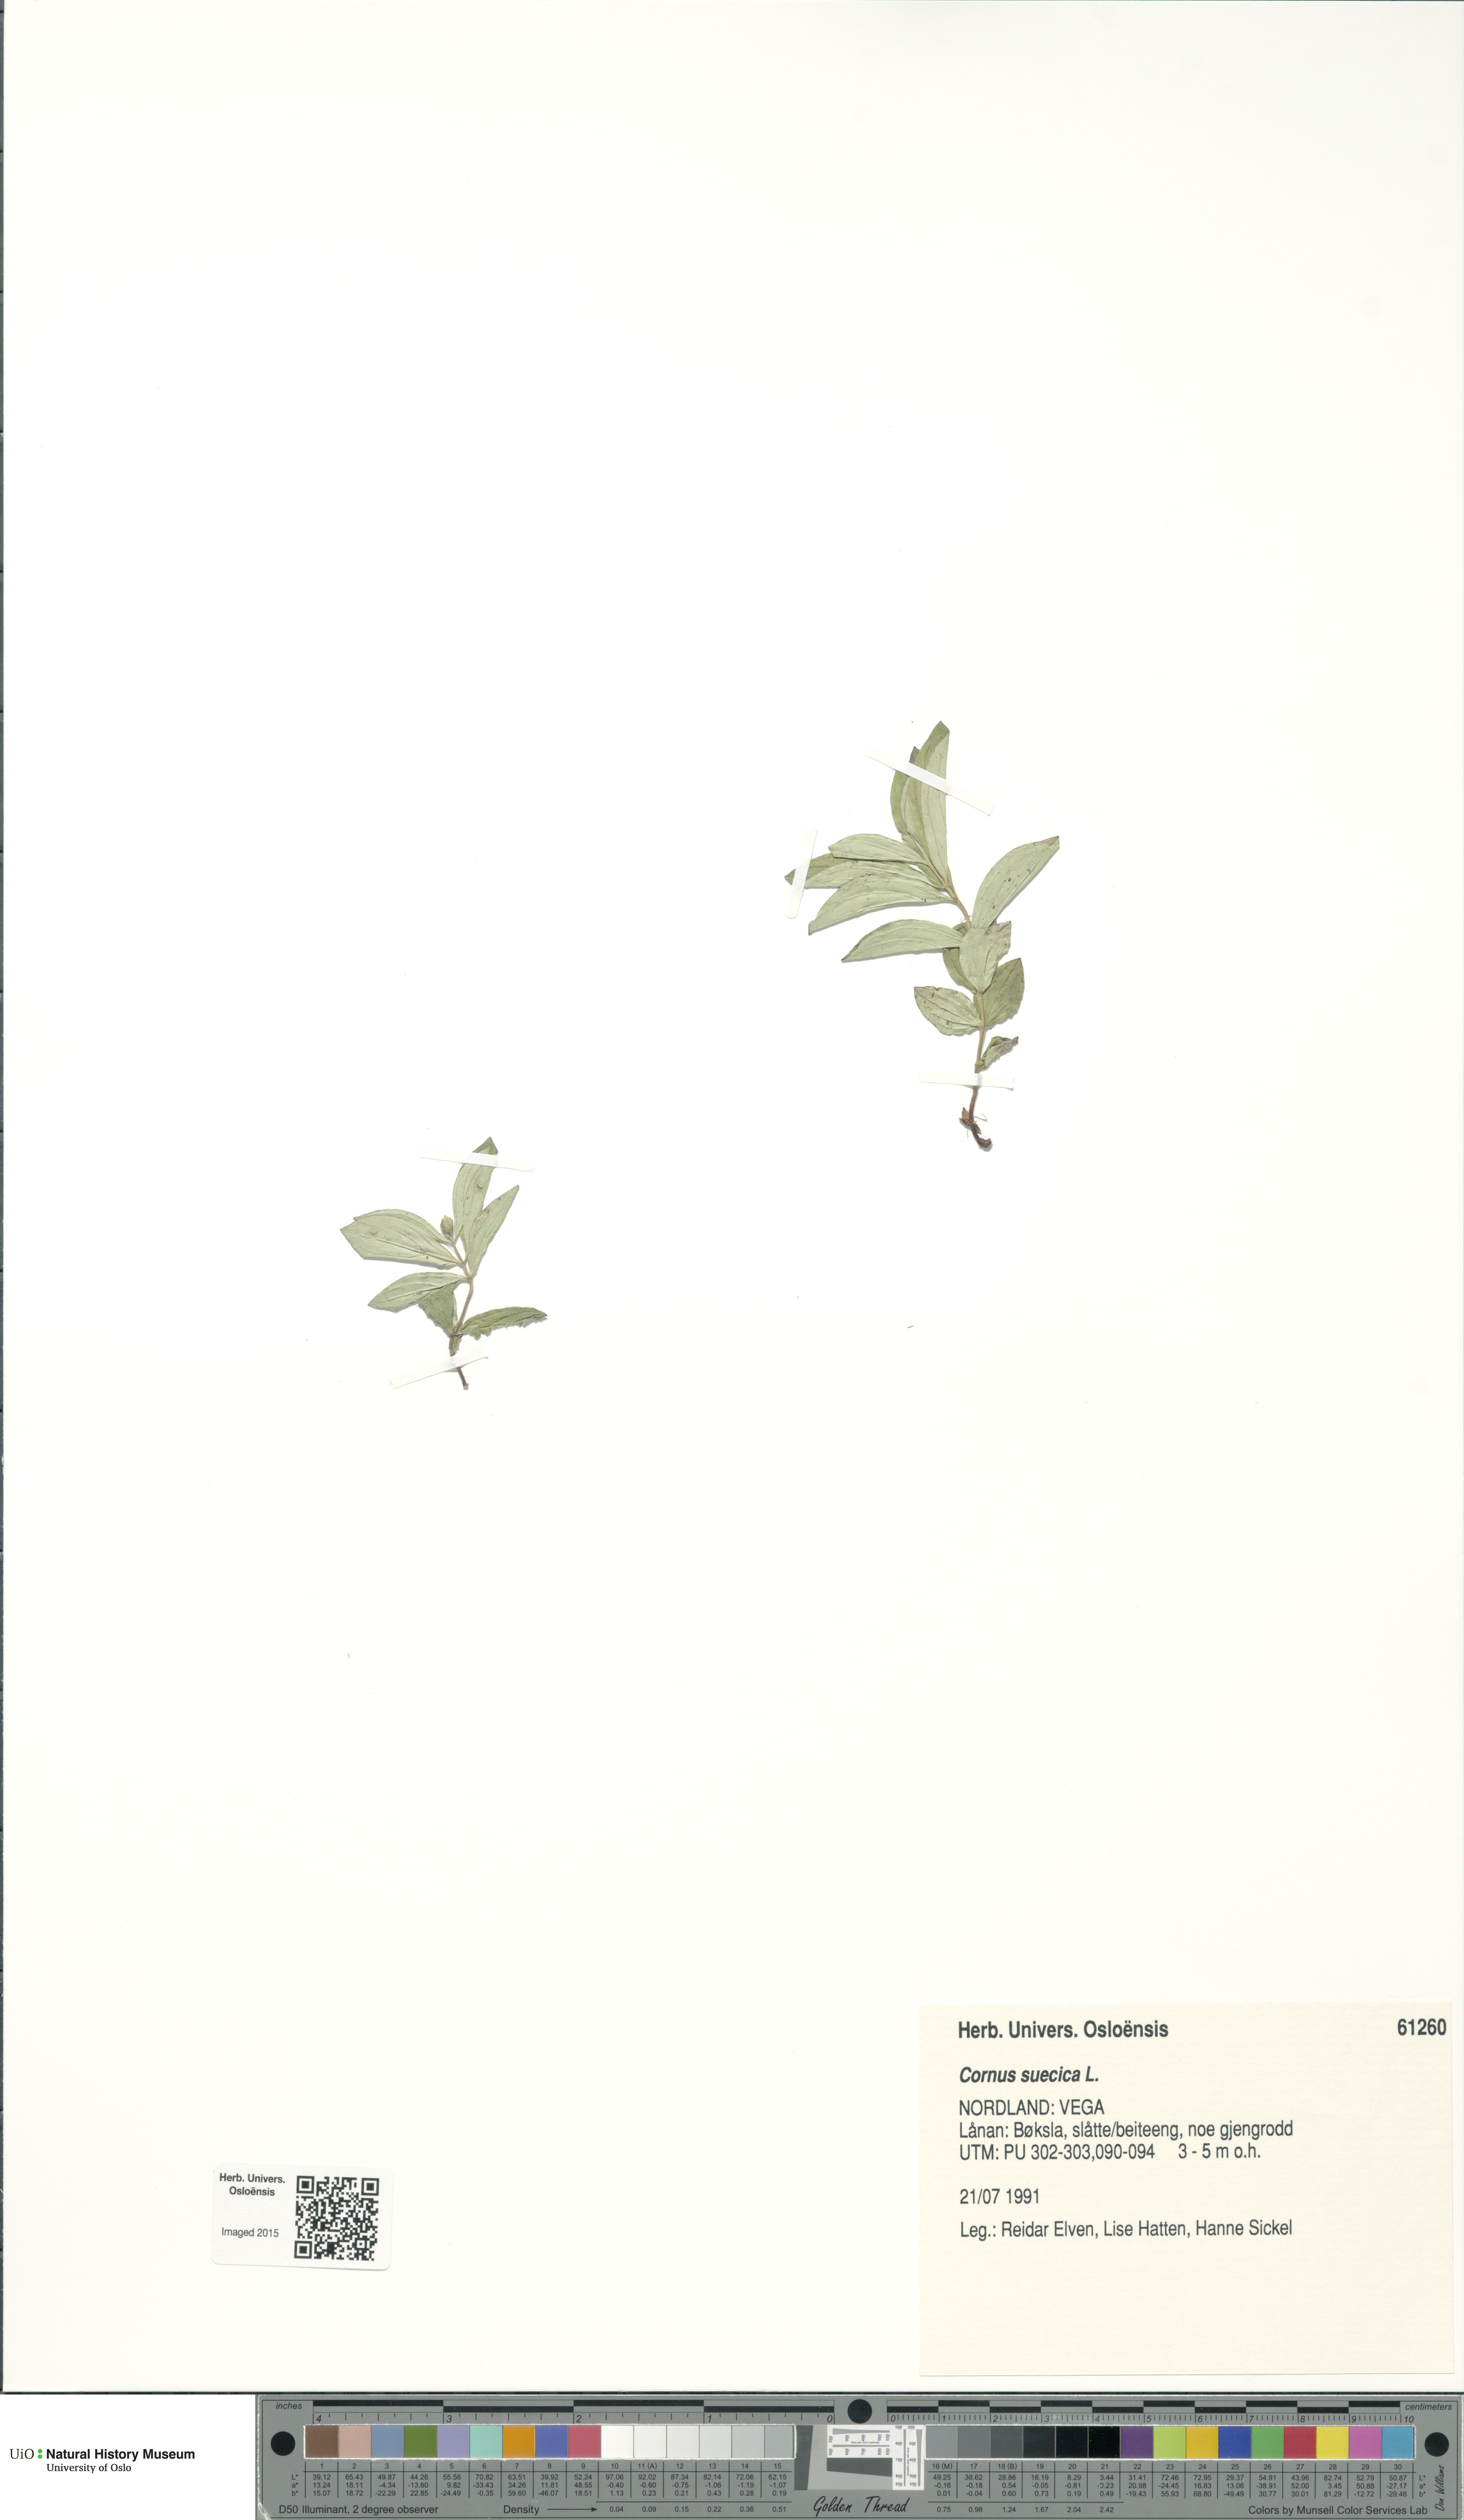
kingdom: Plantae
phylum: Tracheophyta
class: Magnoliopsida
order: Cornales
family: Cornaceae
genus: Cornus
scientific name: Cornus suecica
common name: Dwarf cornel
